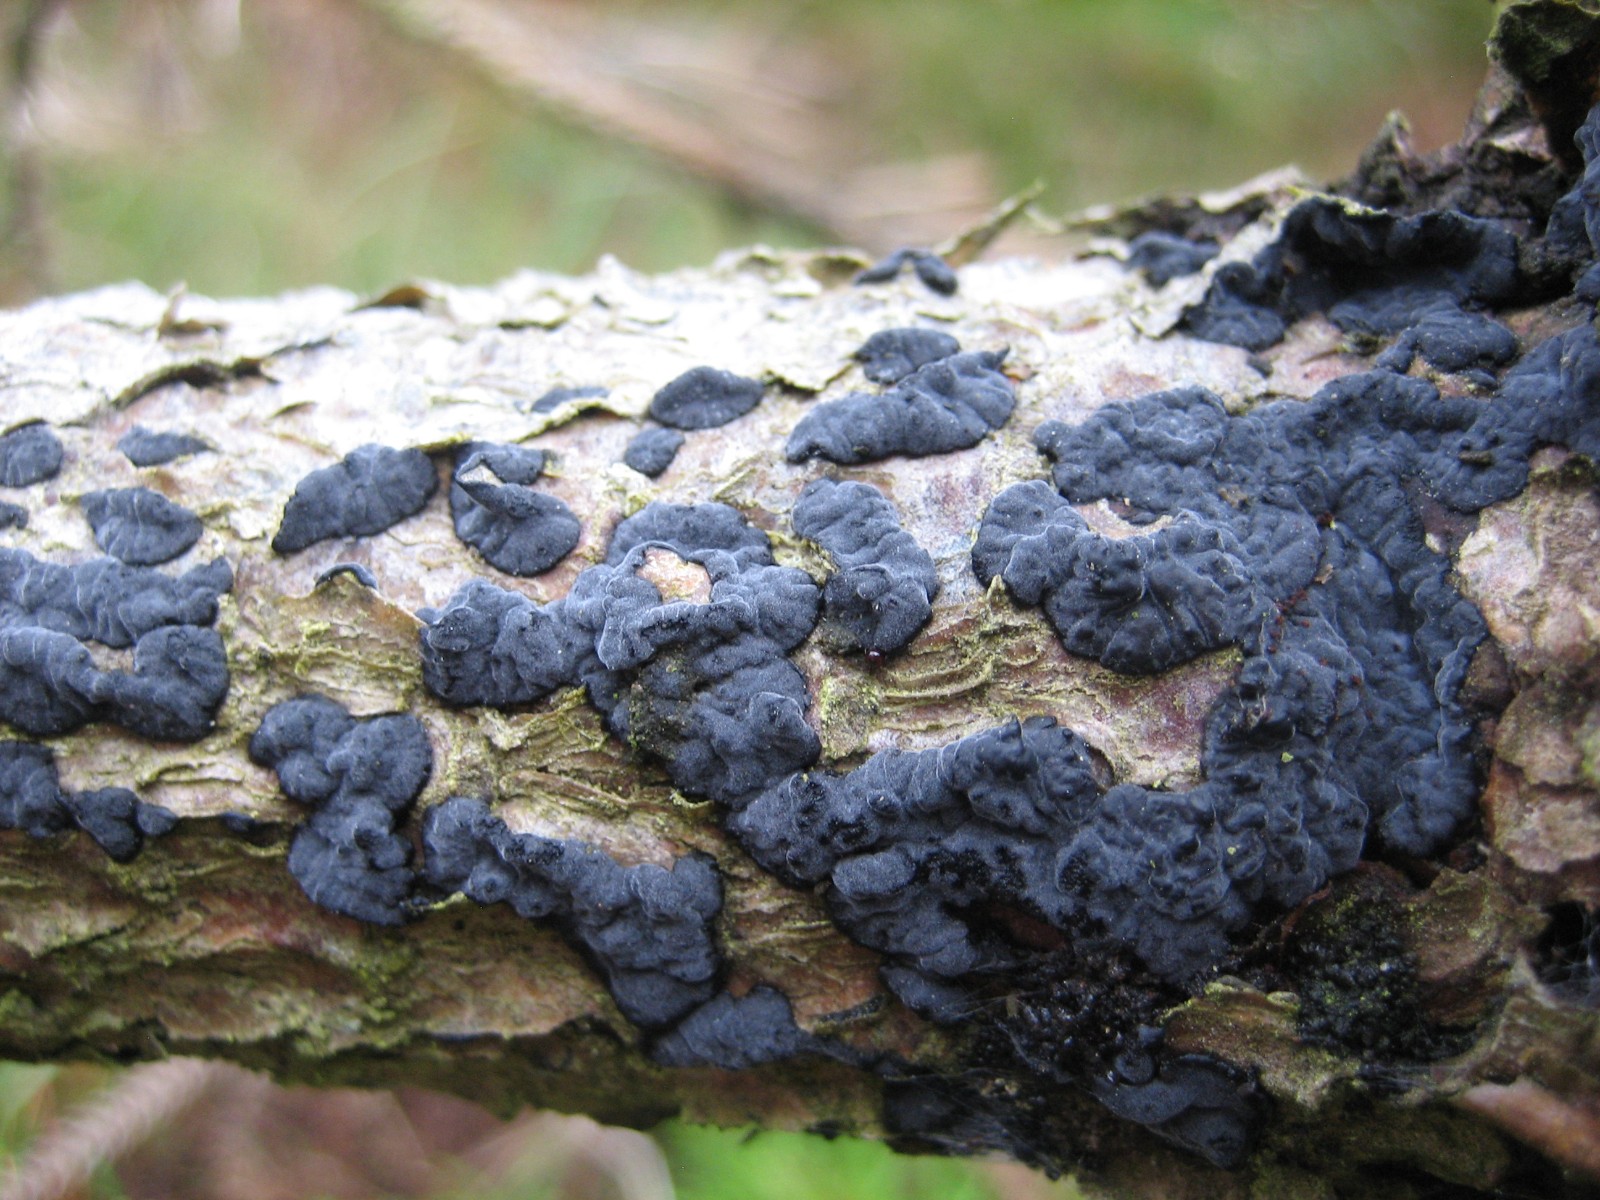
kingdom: Fungi
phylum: Basidiomycota
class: Agaricomycetes
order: Russulales
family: Peniophoraceae
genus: Peniophora
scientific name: Peniophora
